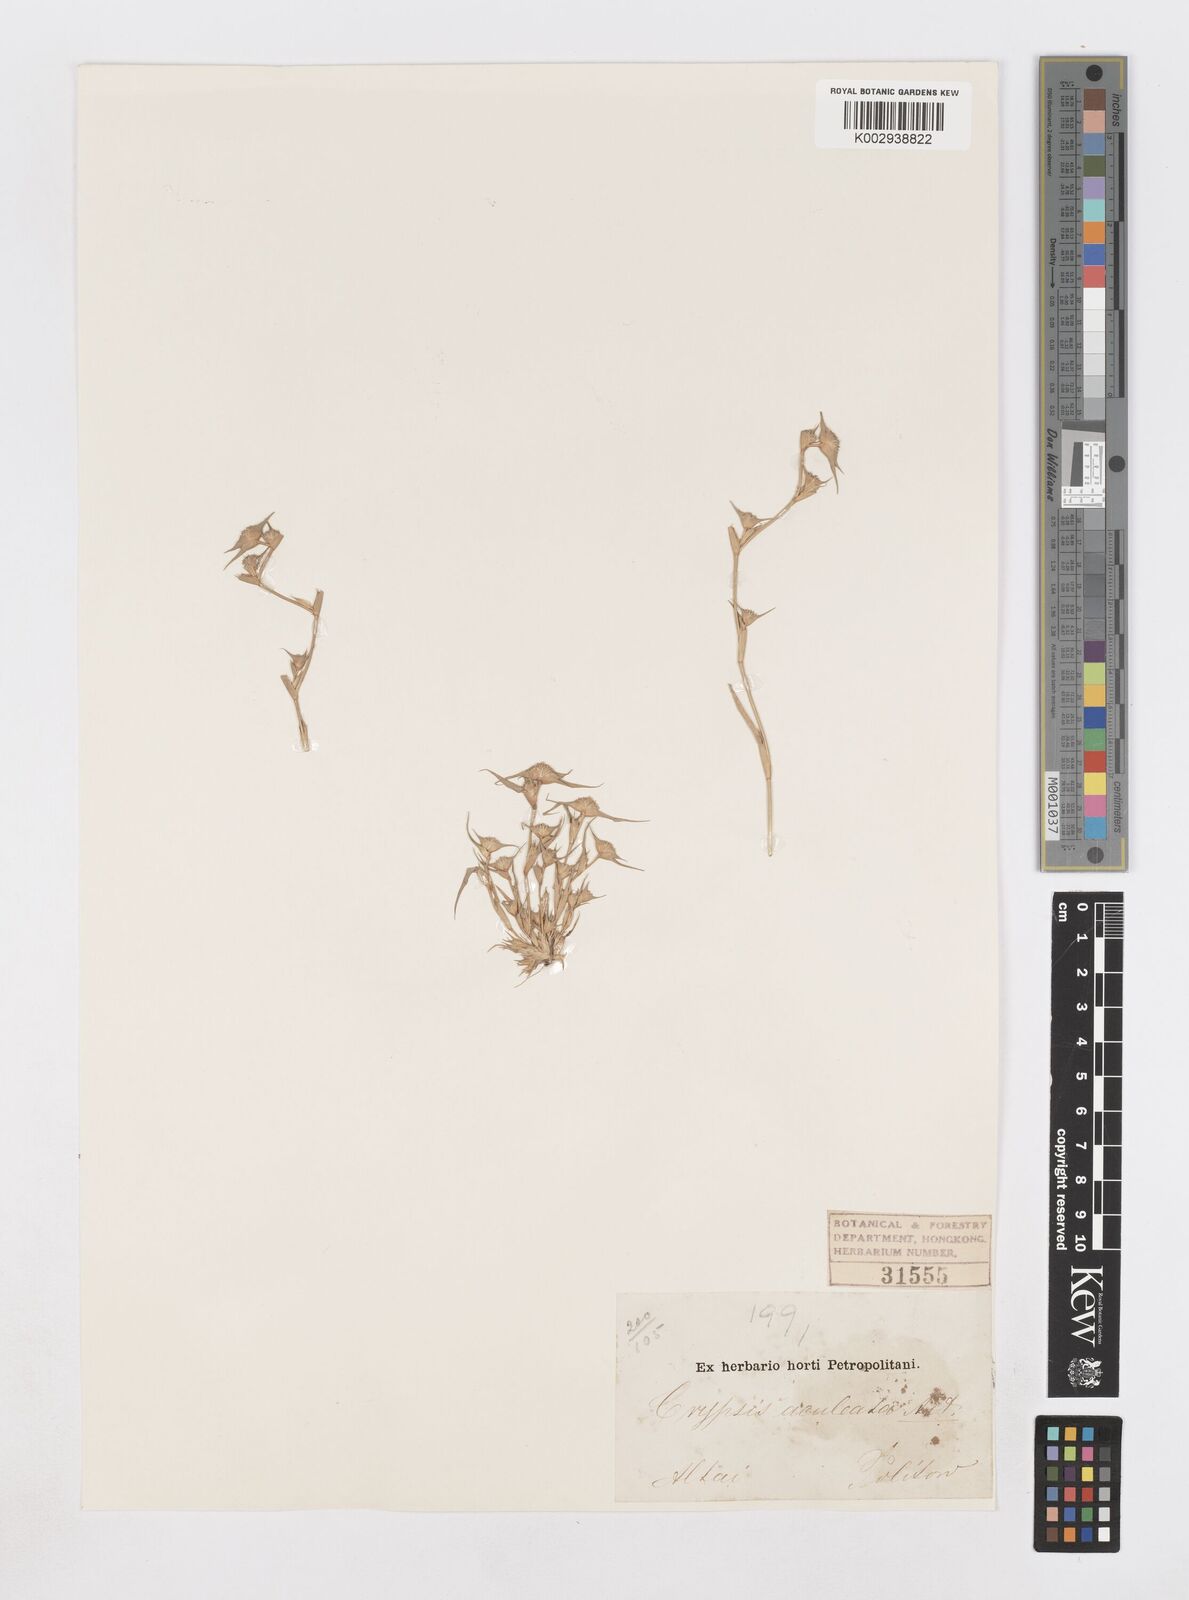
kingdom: Plantae
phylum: Tracheophyta
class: Liliopsida
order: Poales
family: Poaceae
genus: Sporobolus
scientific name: Sporobolus aculeatus
